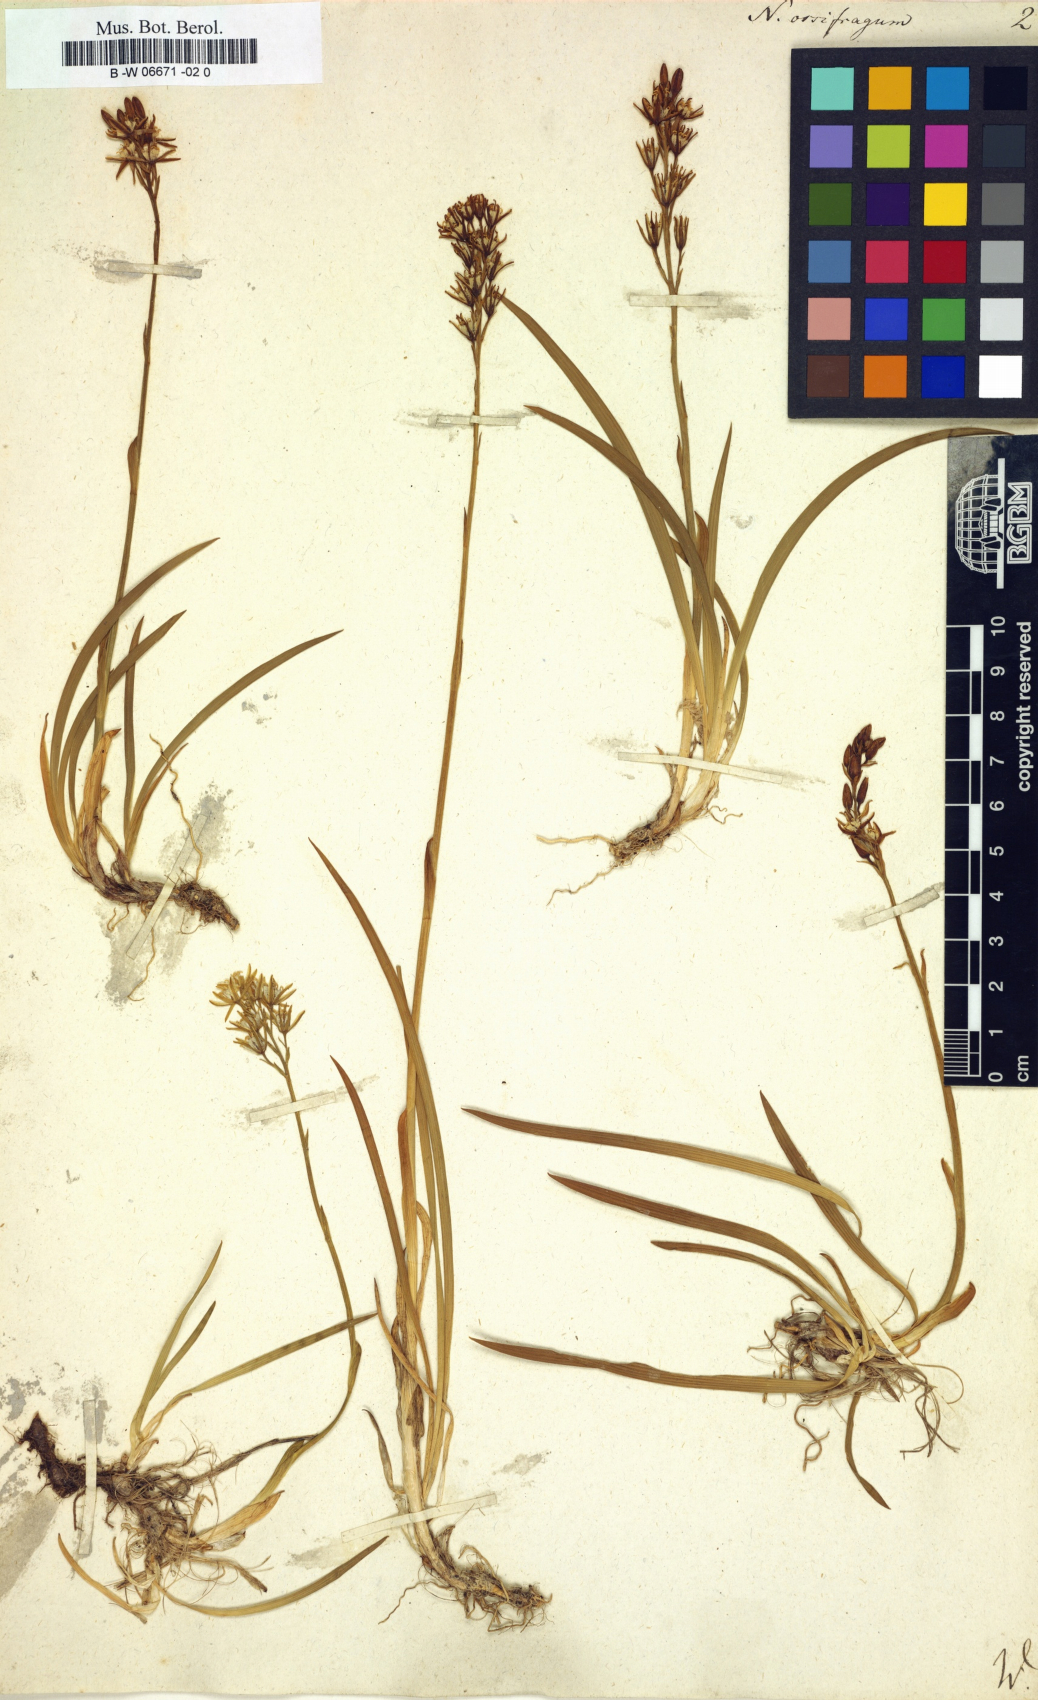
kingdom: Plantae
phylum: Tracheophyta
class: Liliopsida
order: Dioscoreales
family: Nartheciaceae
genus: Narthecium
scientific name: Narthecium ossifragum
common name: Bog asphodel
